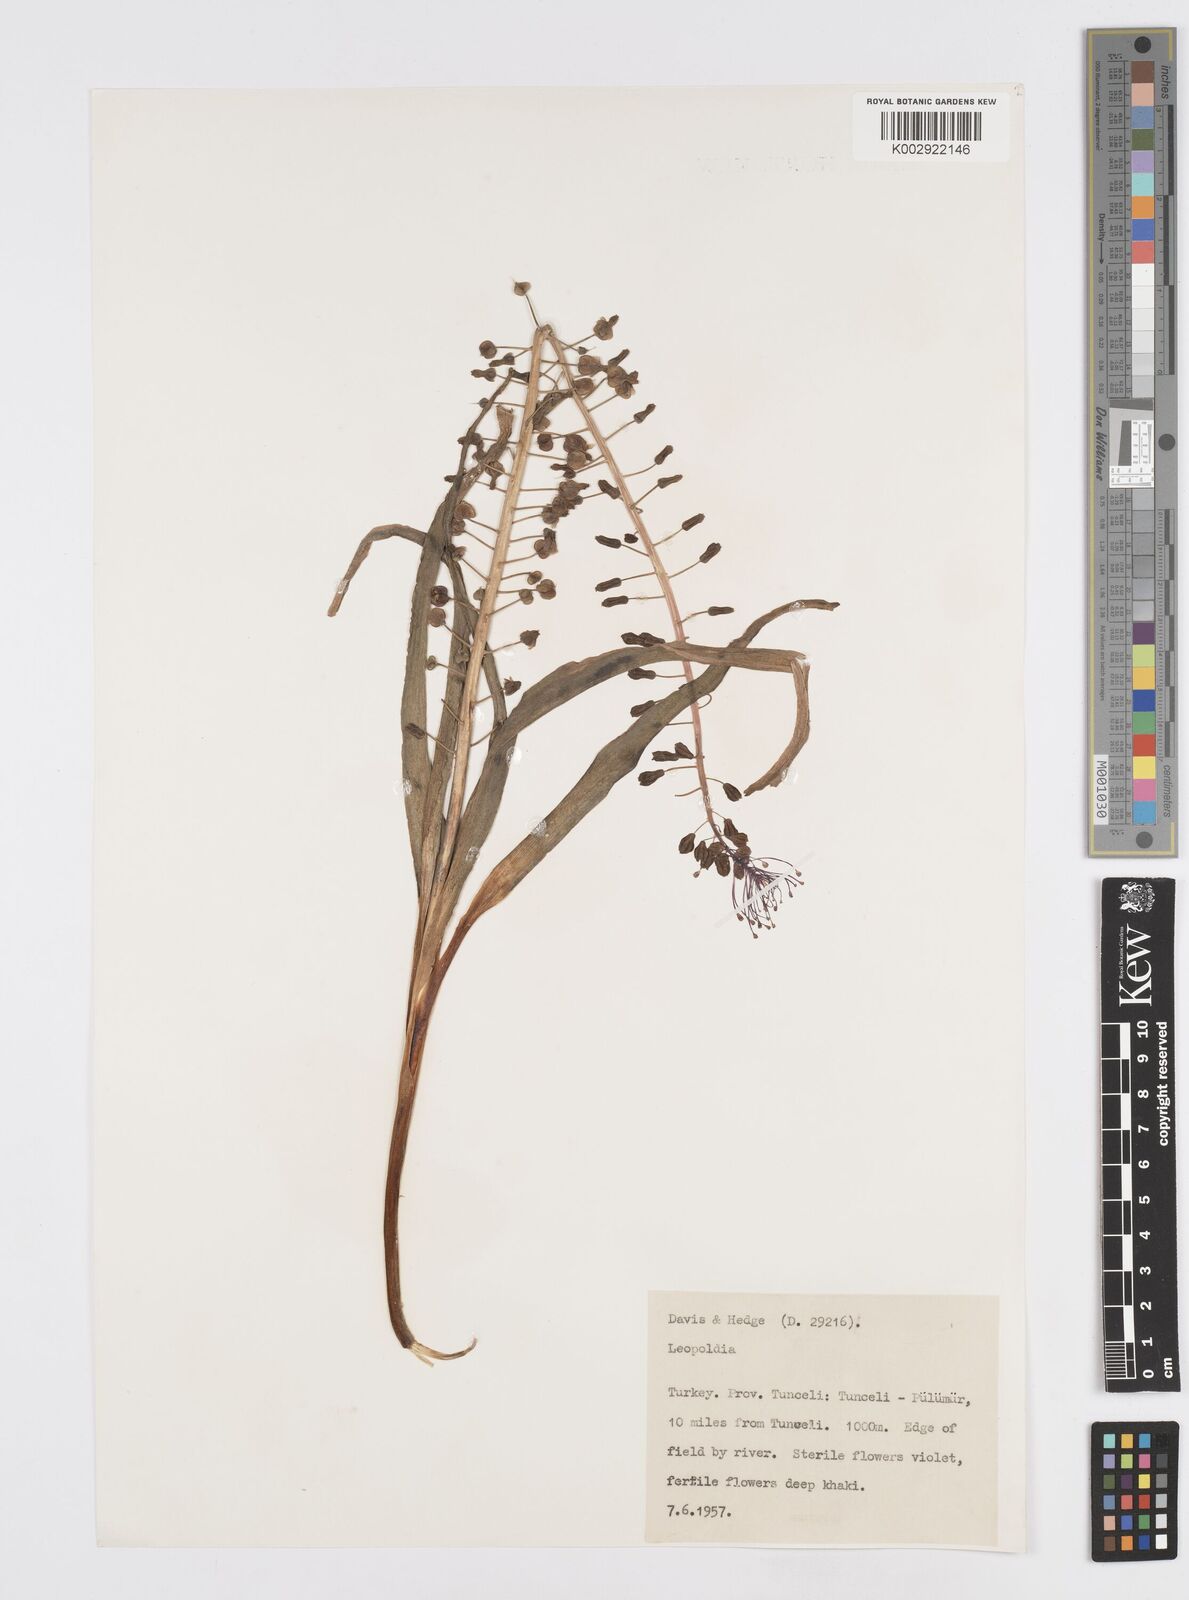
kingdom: Plantae
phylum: Tracheophyta
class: Liliopsida
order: Asparagales
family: Asparagaceae
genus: Muscari
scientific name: Muscari comosum
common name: Tassel hyacinth
